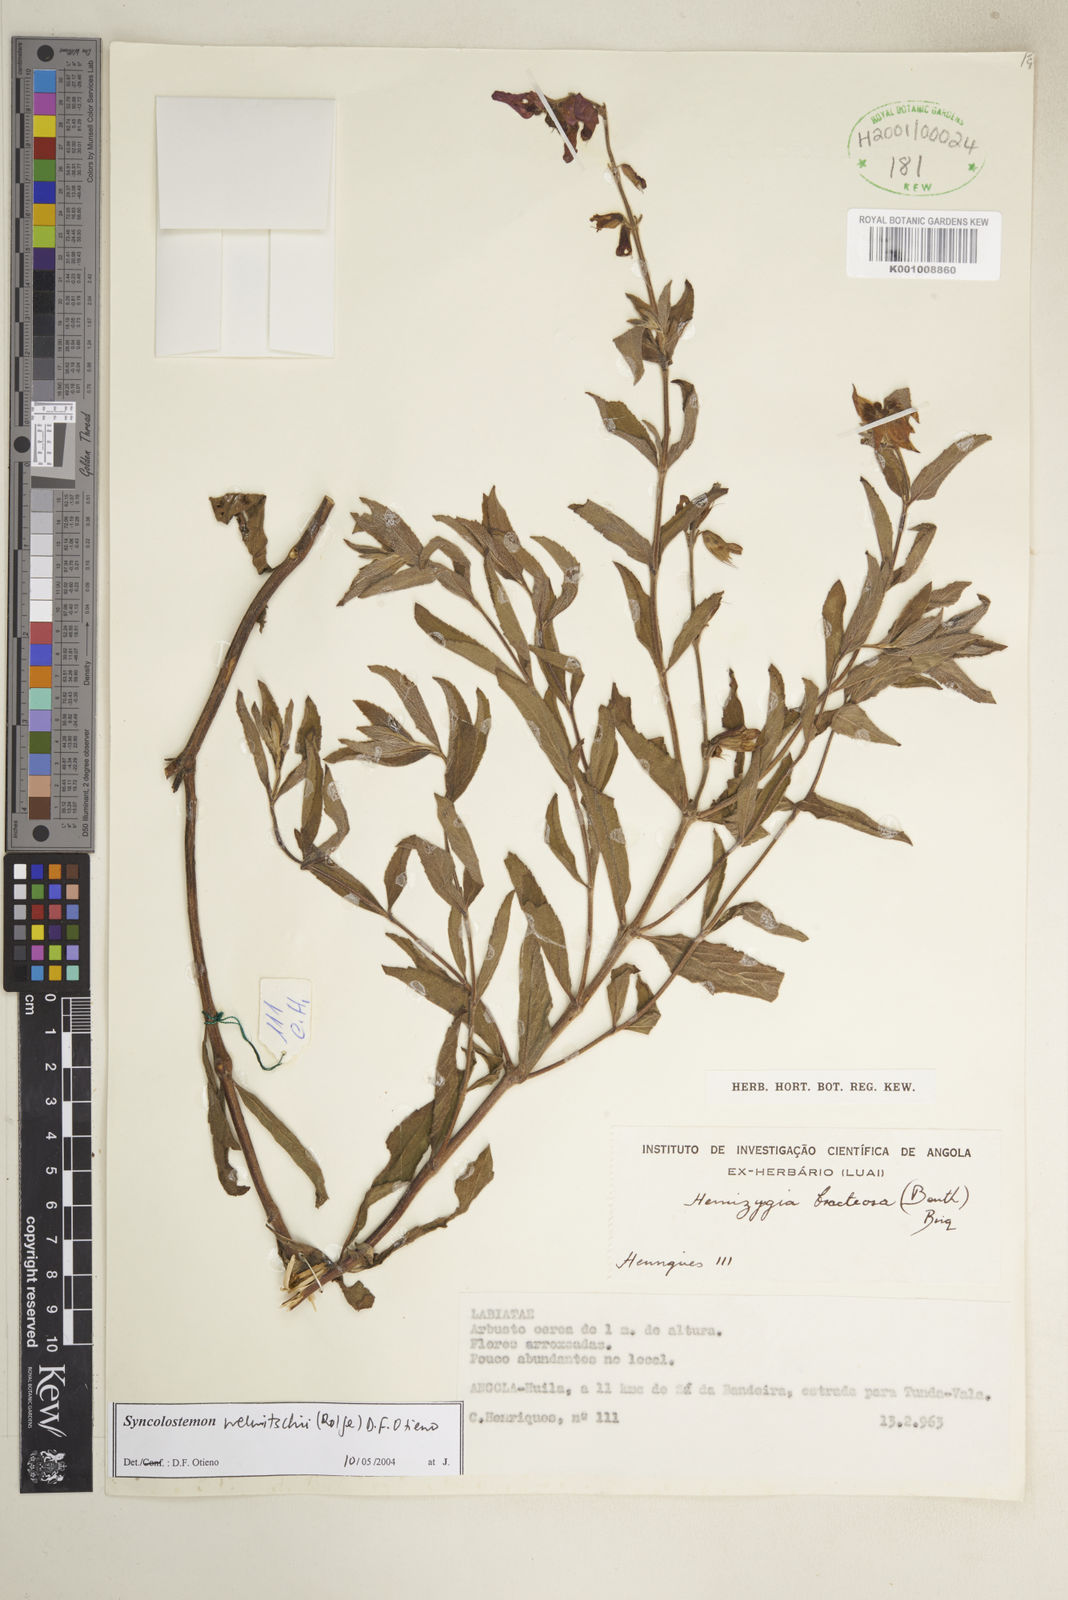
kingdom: Plantae
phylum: Tracheophyta
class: Magnoliopsida
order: Lamiales
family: Lamiaceae
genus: Syncolostemon
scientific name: Syncolostemon welwitschii
